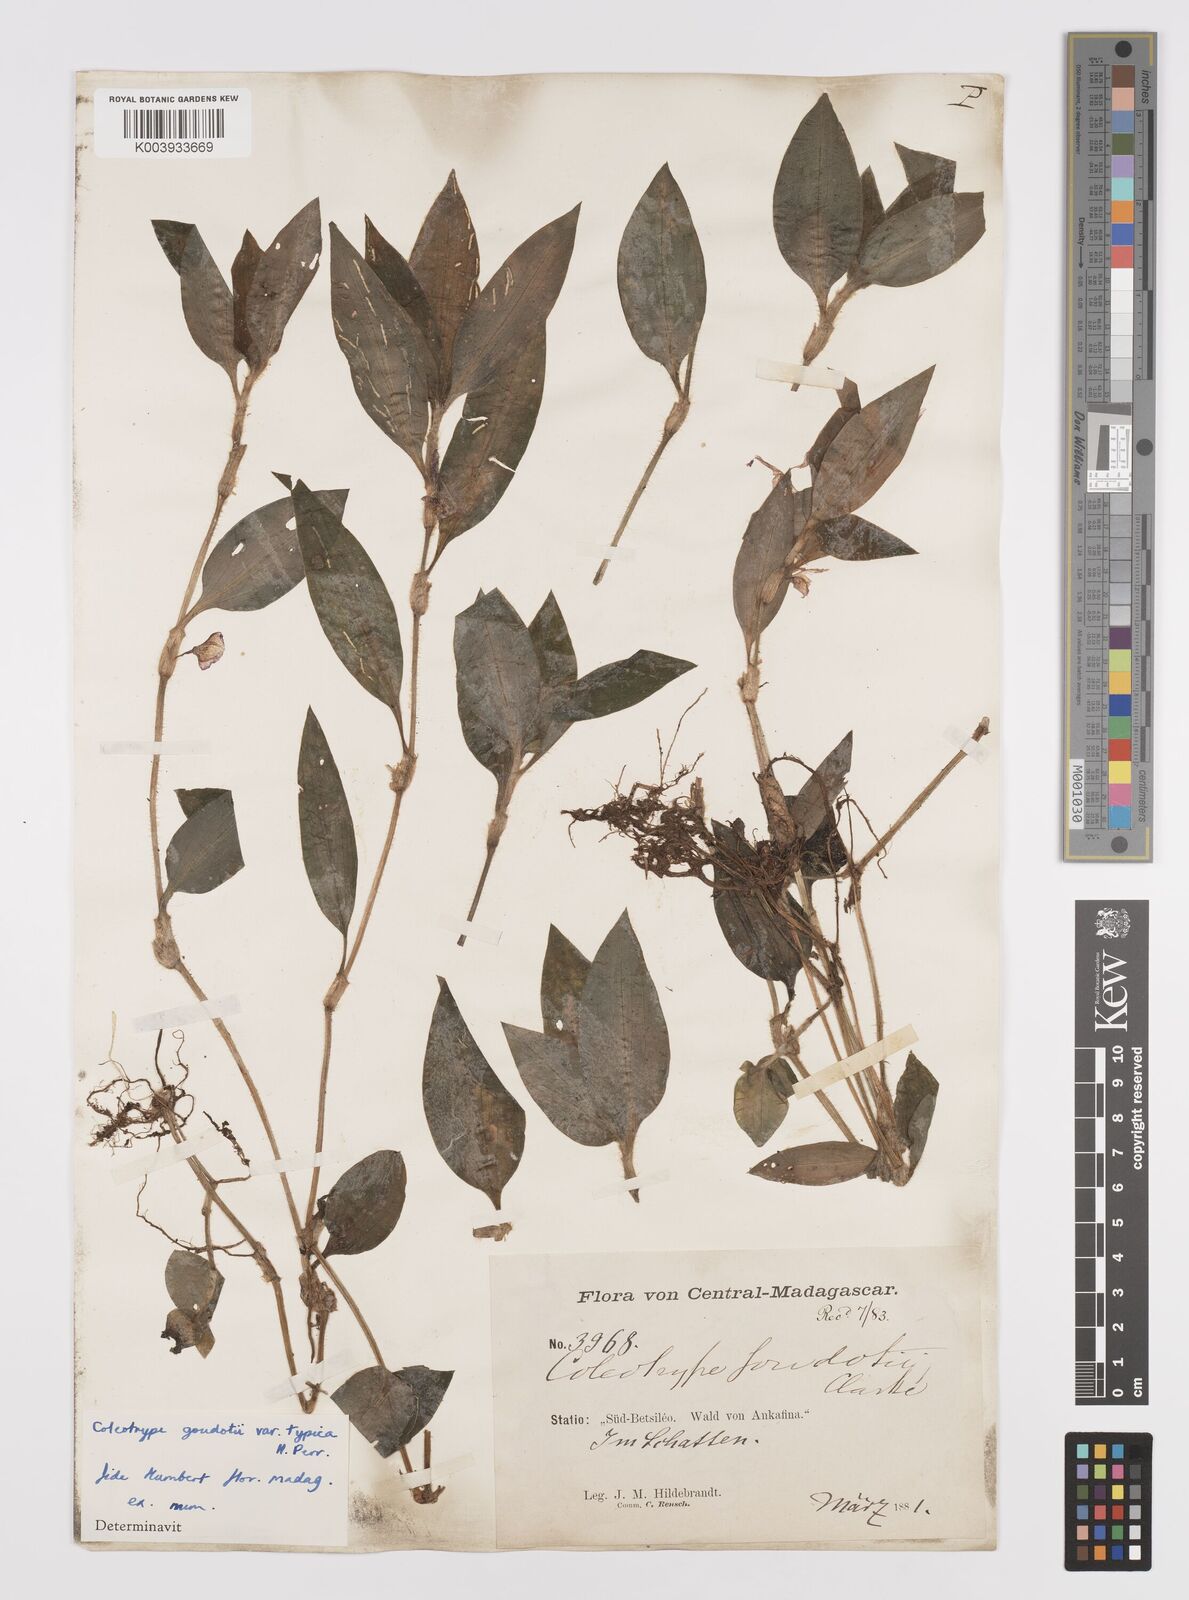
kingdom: Plantae
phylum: Tracheophyta
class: Liliopsida
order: Commelinales
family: Commelinaceae
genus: Coleotrype
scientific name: Coleotrype goudotii
